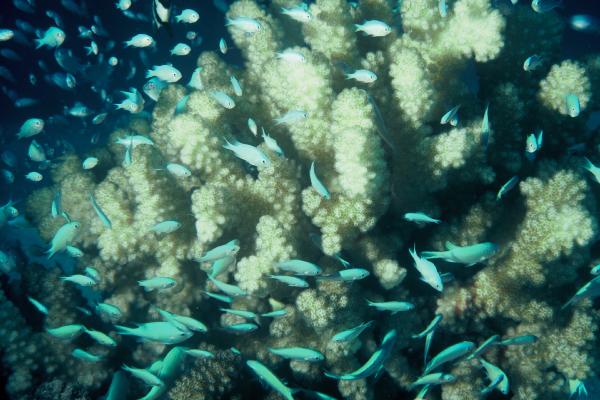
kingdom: Animalia
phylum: Chordata
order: Perciformes
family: Pomacentridae
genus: Chromis
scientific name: Chromis viridis
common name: Blue-green chromis
